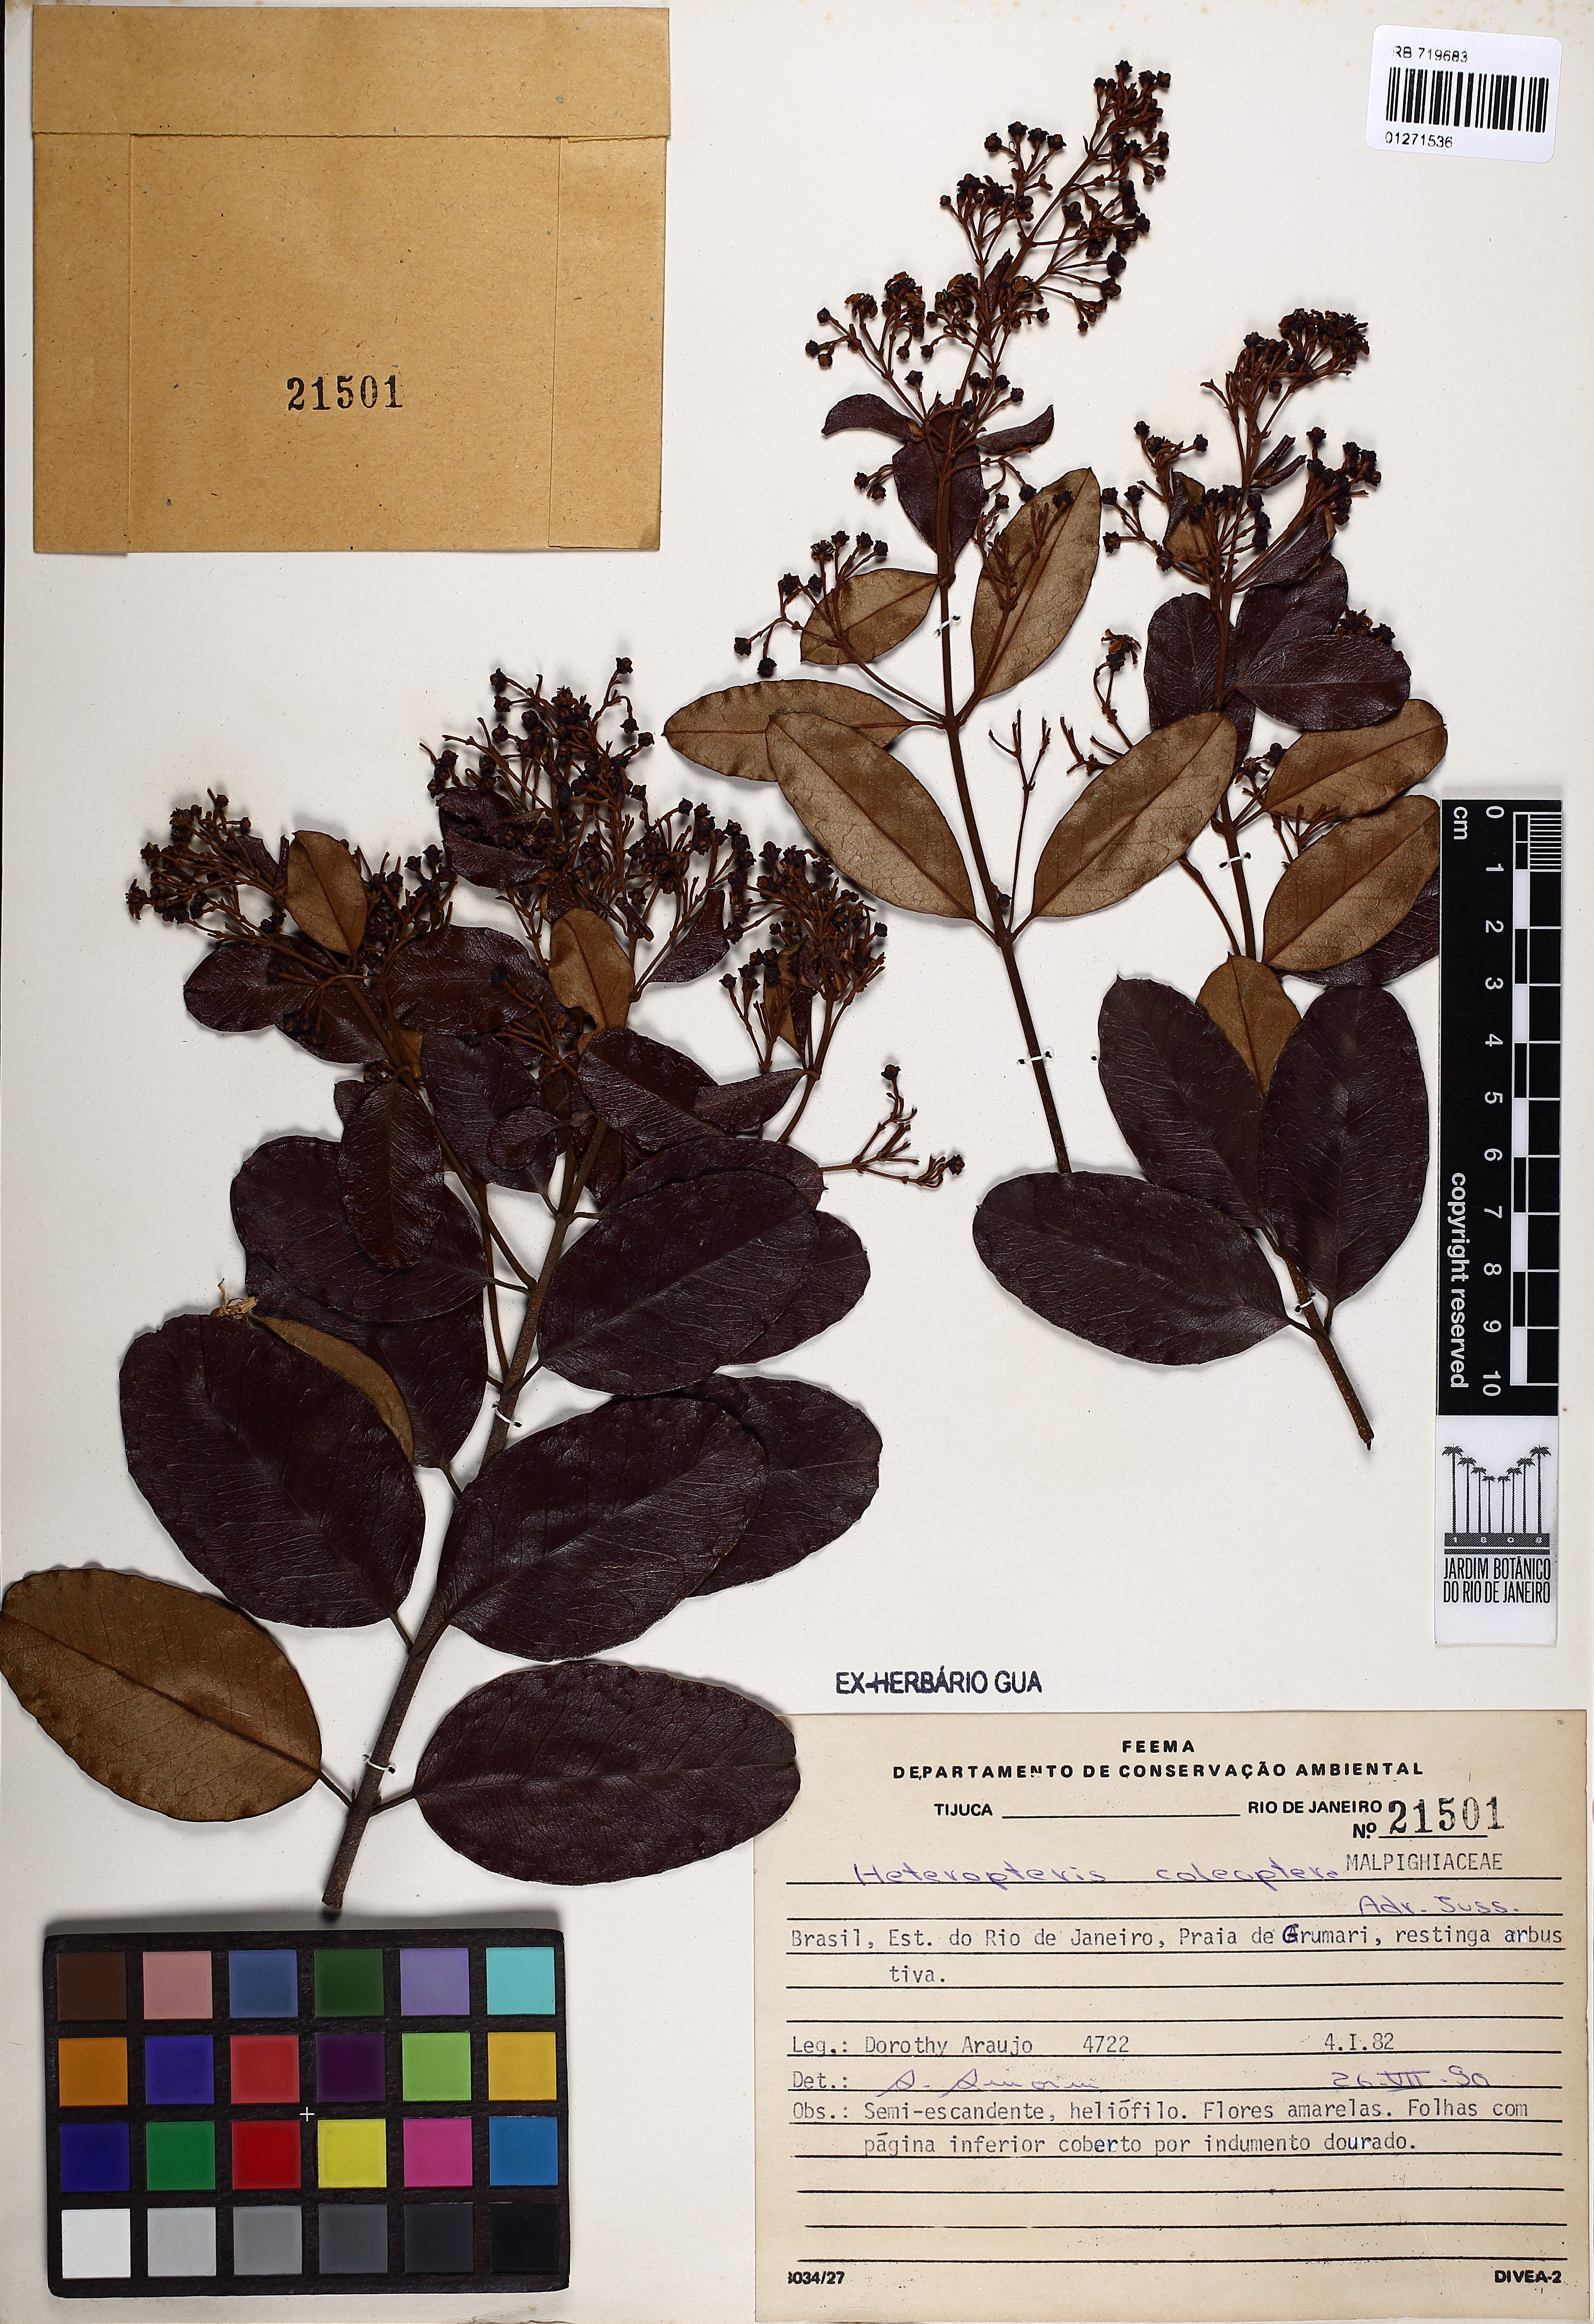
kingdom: Plantae
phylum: Tracheophyta
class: Magnoliopsida
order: Malpighiales
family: Malpighiaceae
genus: Heteropterys
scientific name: Heteropterys coleoptera
